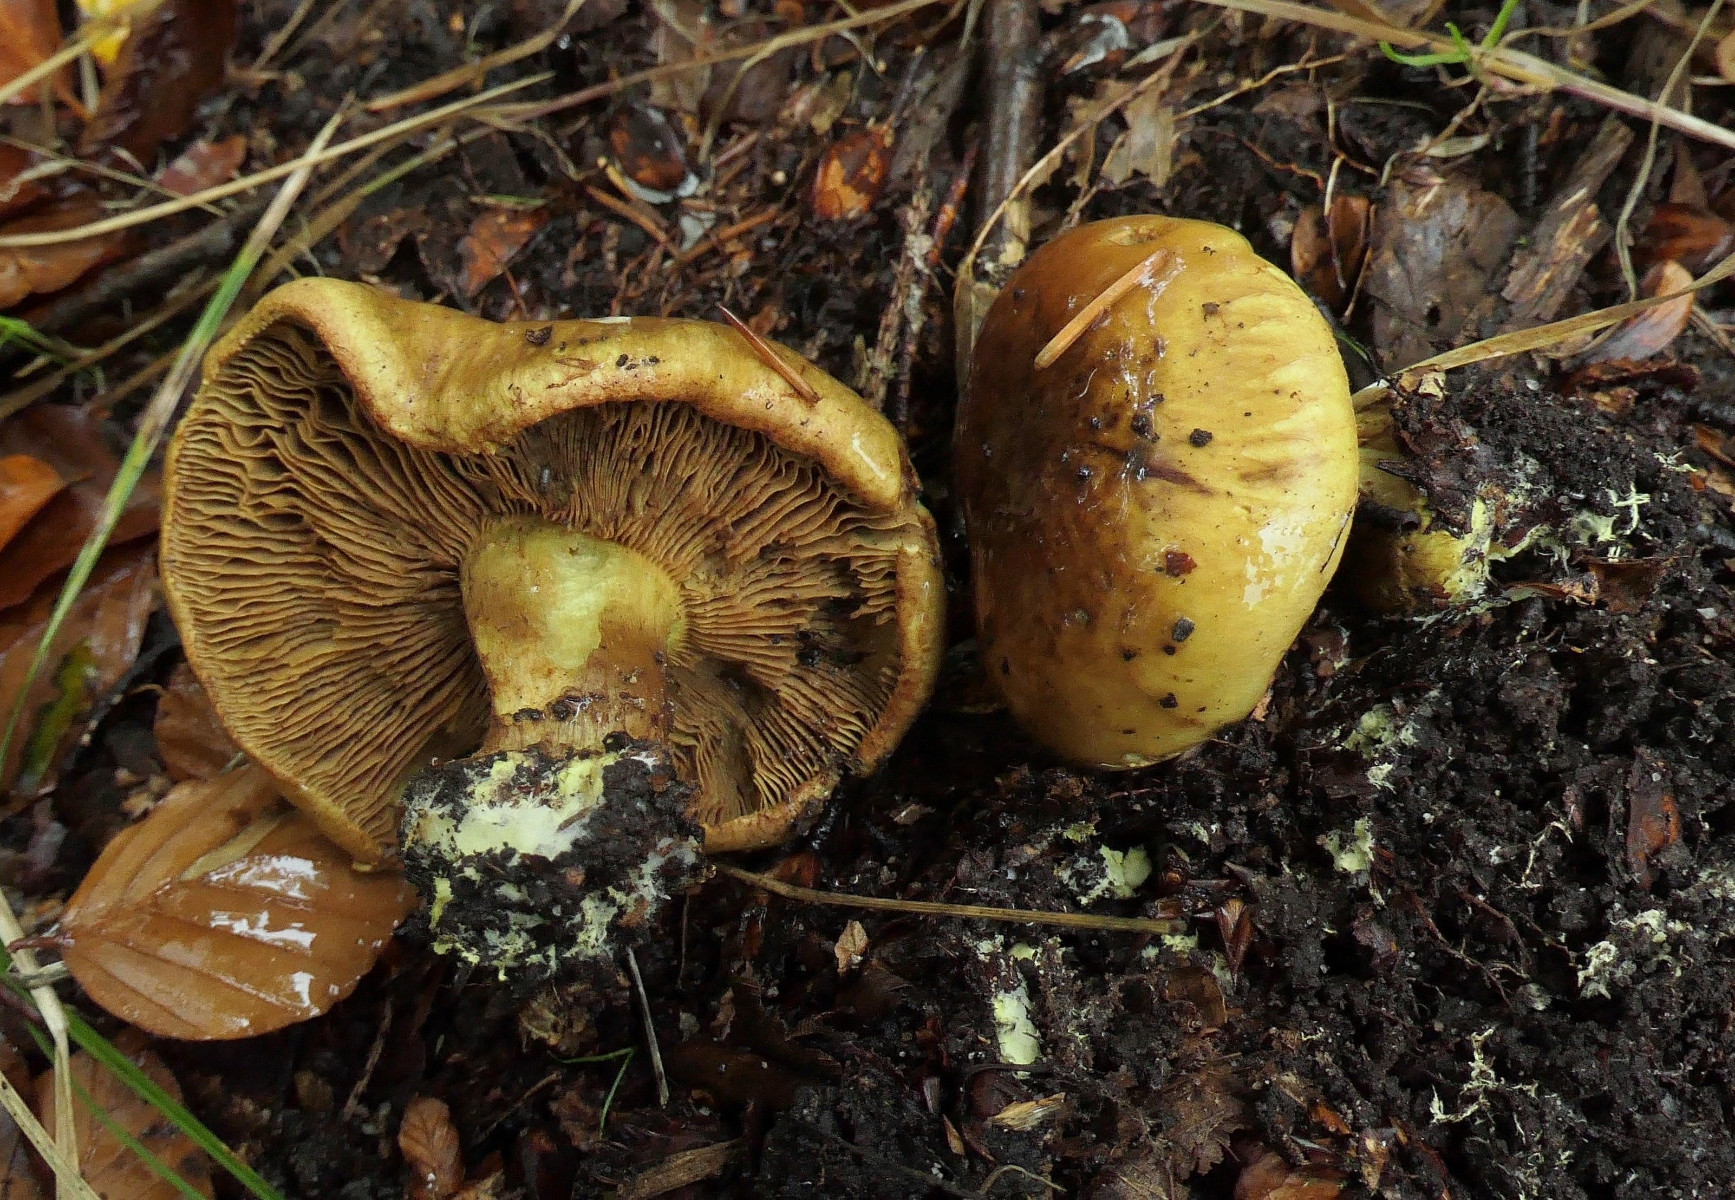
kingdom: Fungi
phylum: Basidiomycota
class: Agaricomycetes
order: Agaricales
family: Cortinariaceae
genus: Calonarius
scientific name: Calonarius citrinus
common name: citrongul slørhat
